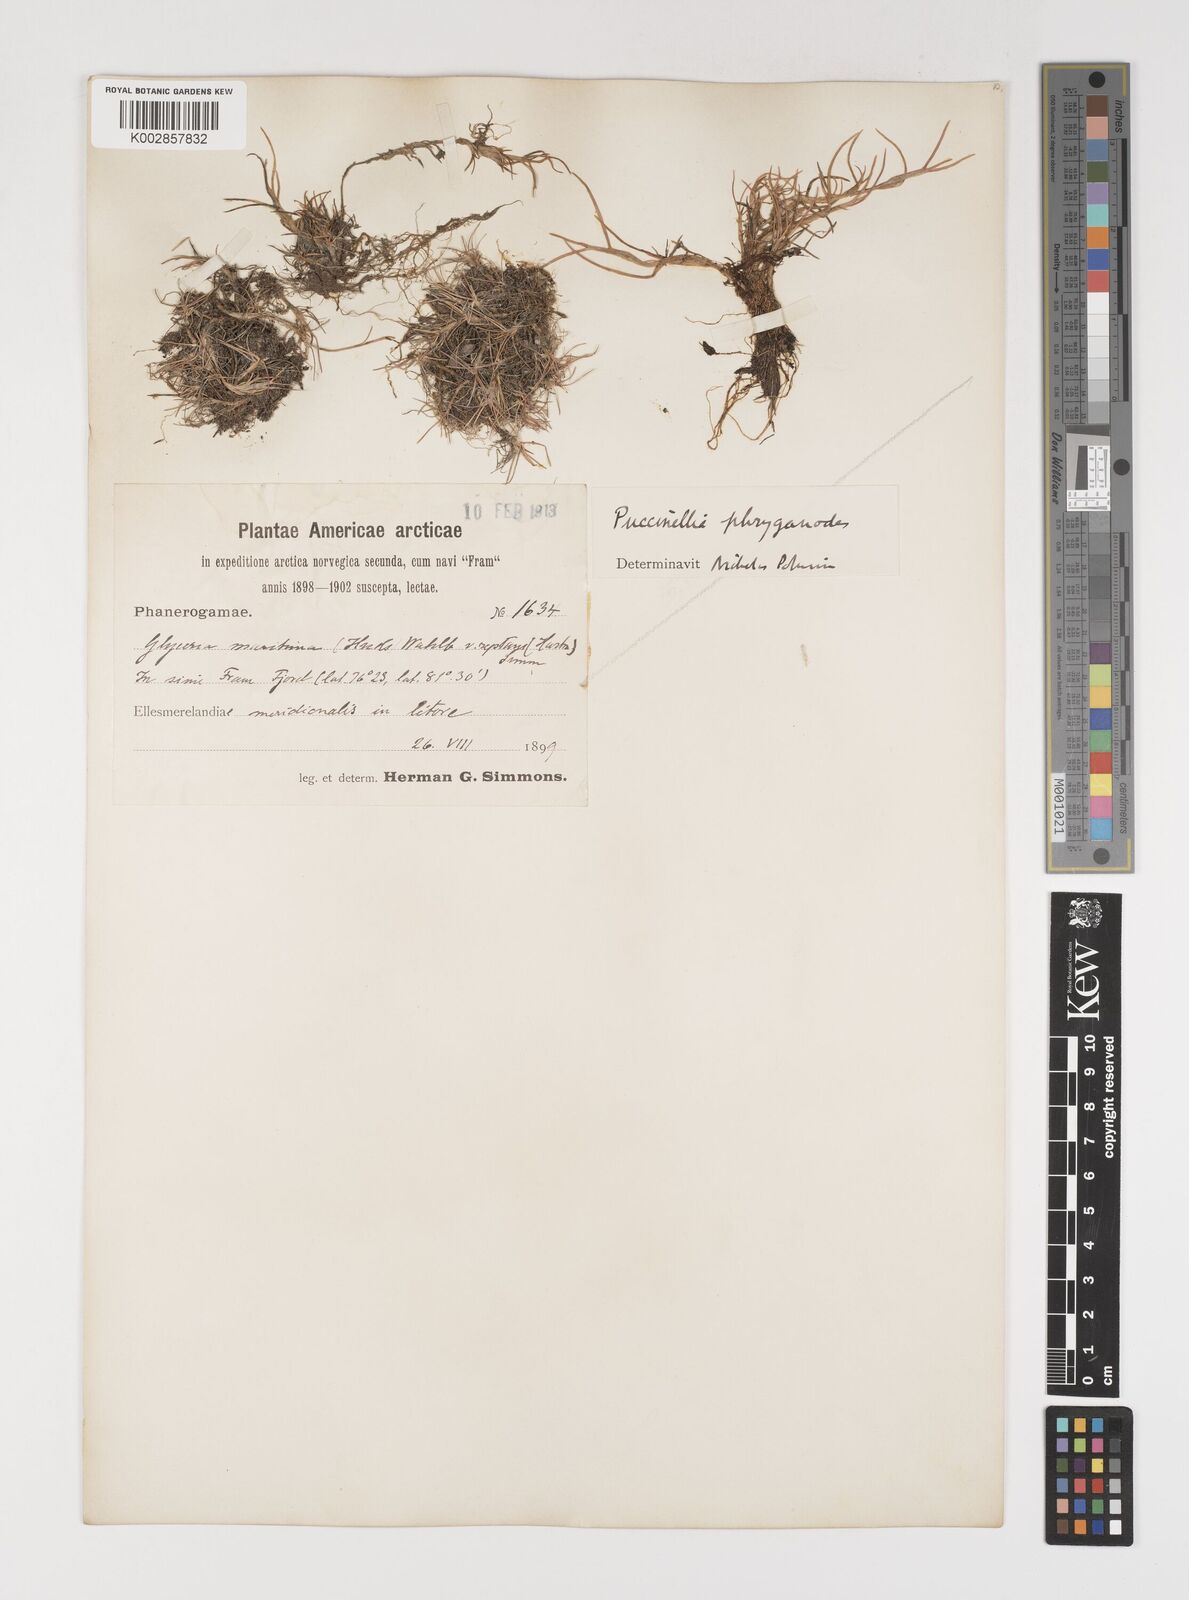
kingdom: Plantae
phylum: Tracheophyta
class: Liliopsida
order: Poales
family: Poaceae
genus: Puccinellia
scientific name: Puccinellia phryganodes
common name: Creeping alkaligrass
